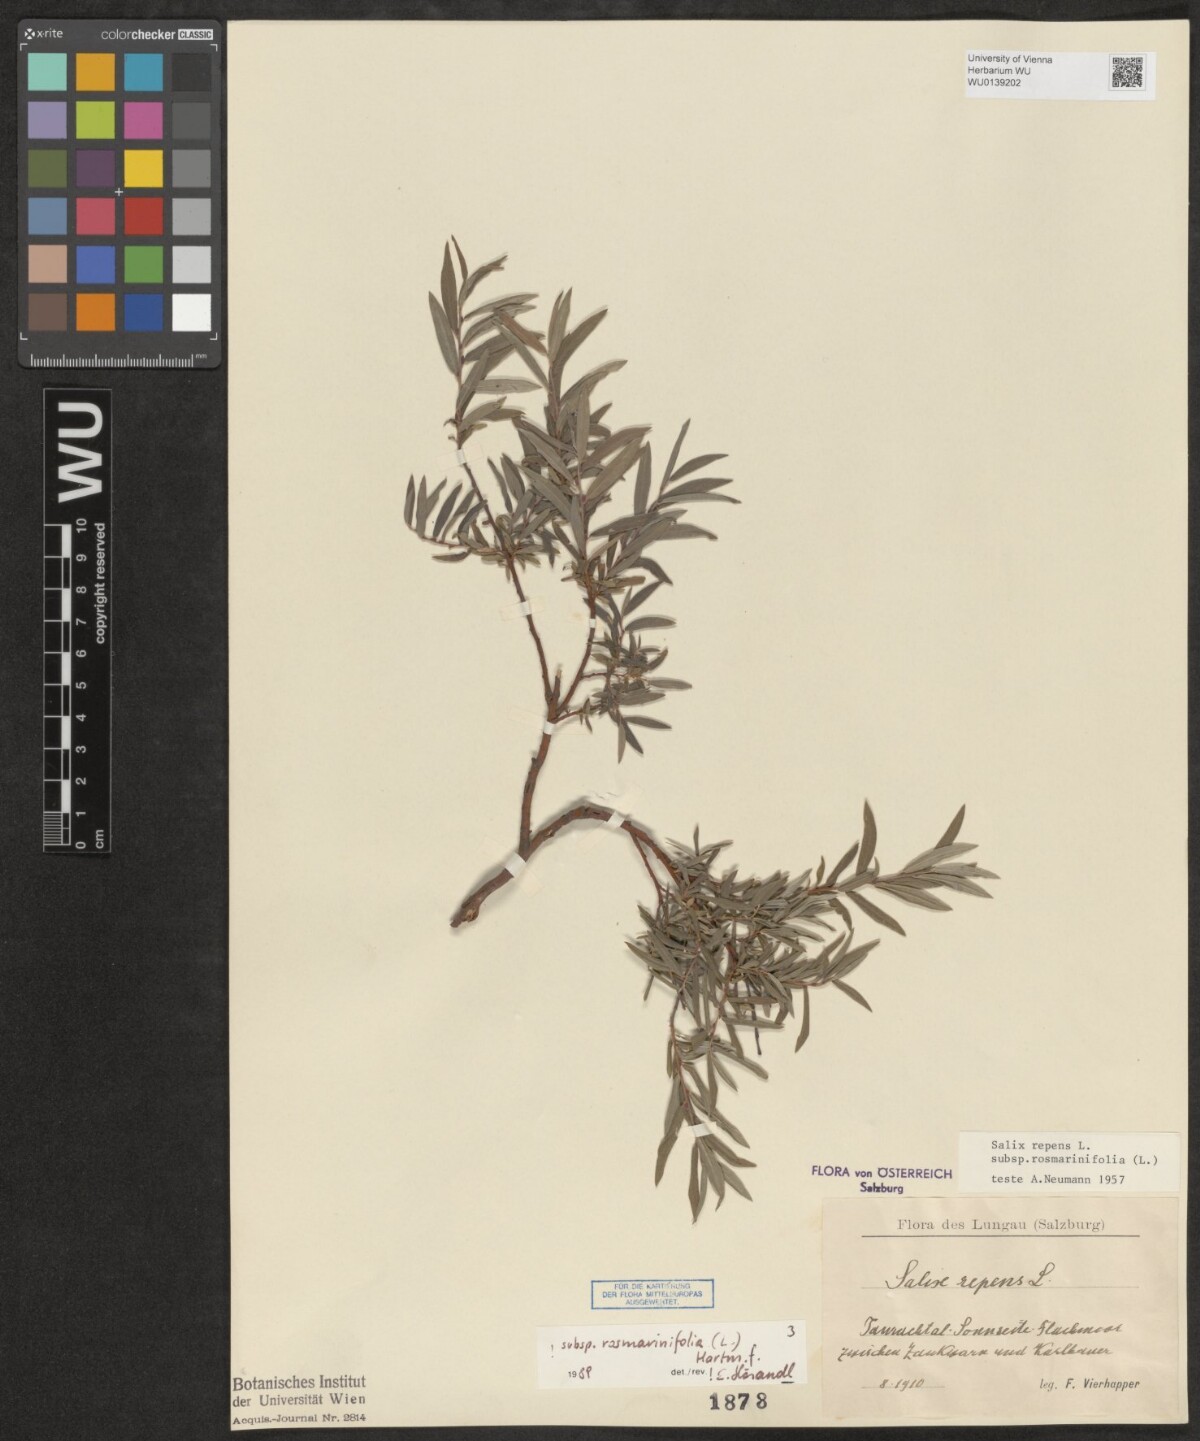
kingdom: Plantae
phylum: Tracheophyta
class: Magnoliopsida
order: Malpighiales
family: Salicaceae
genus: Salix
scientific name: Salix repens
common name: Creeping willow
